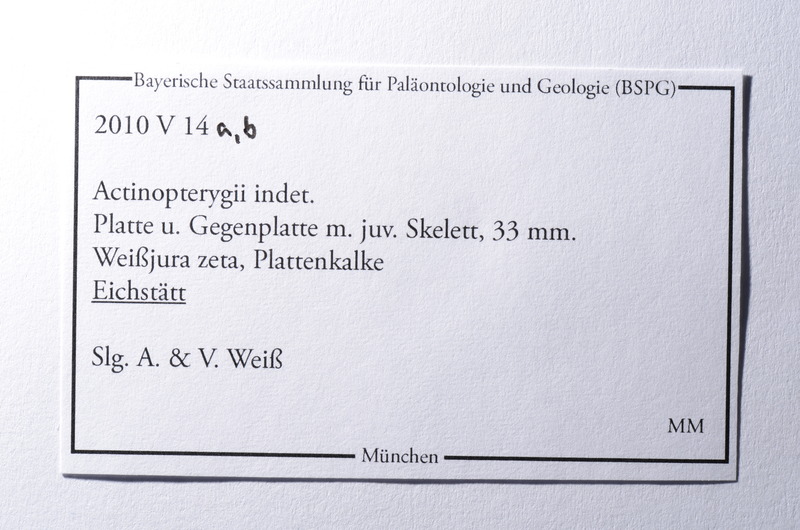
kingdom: Animalia
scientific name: Animalia
